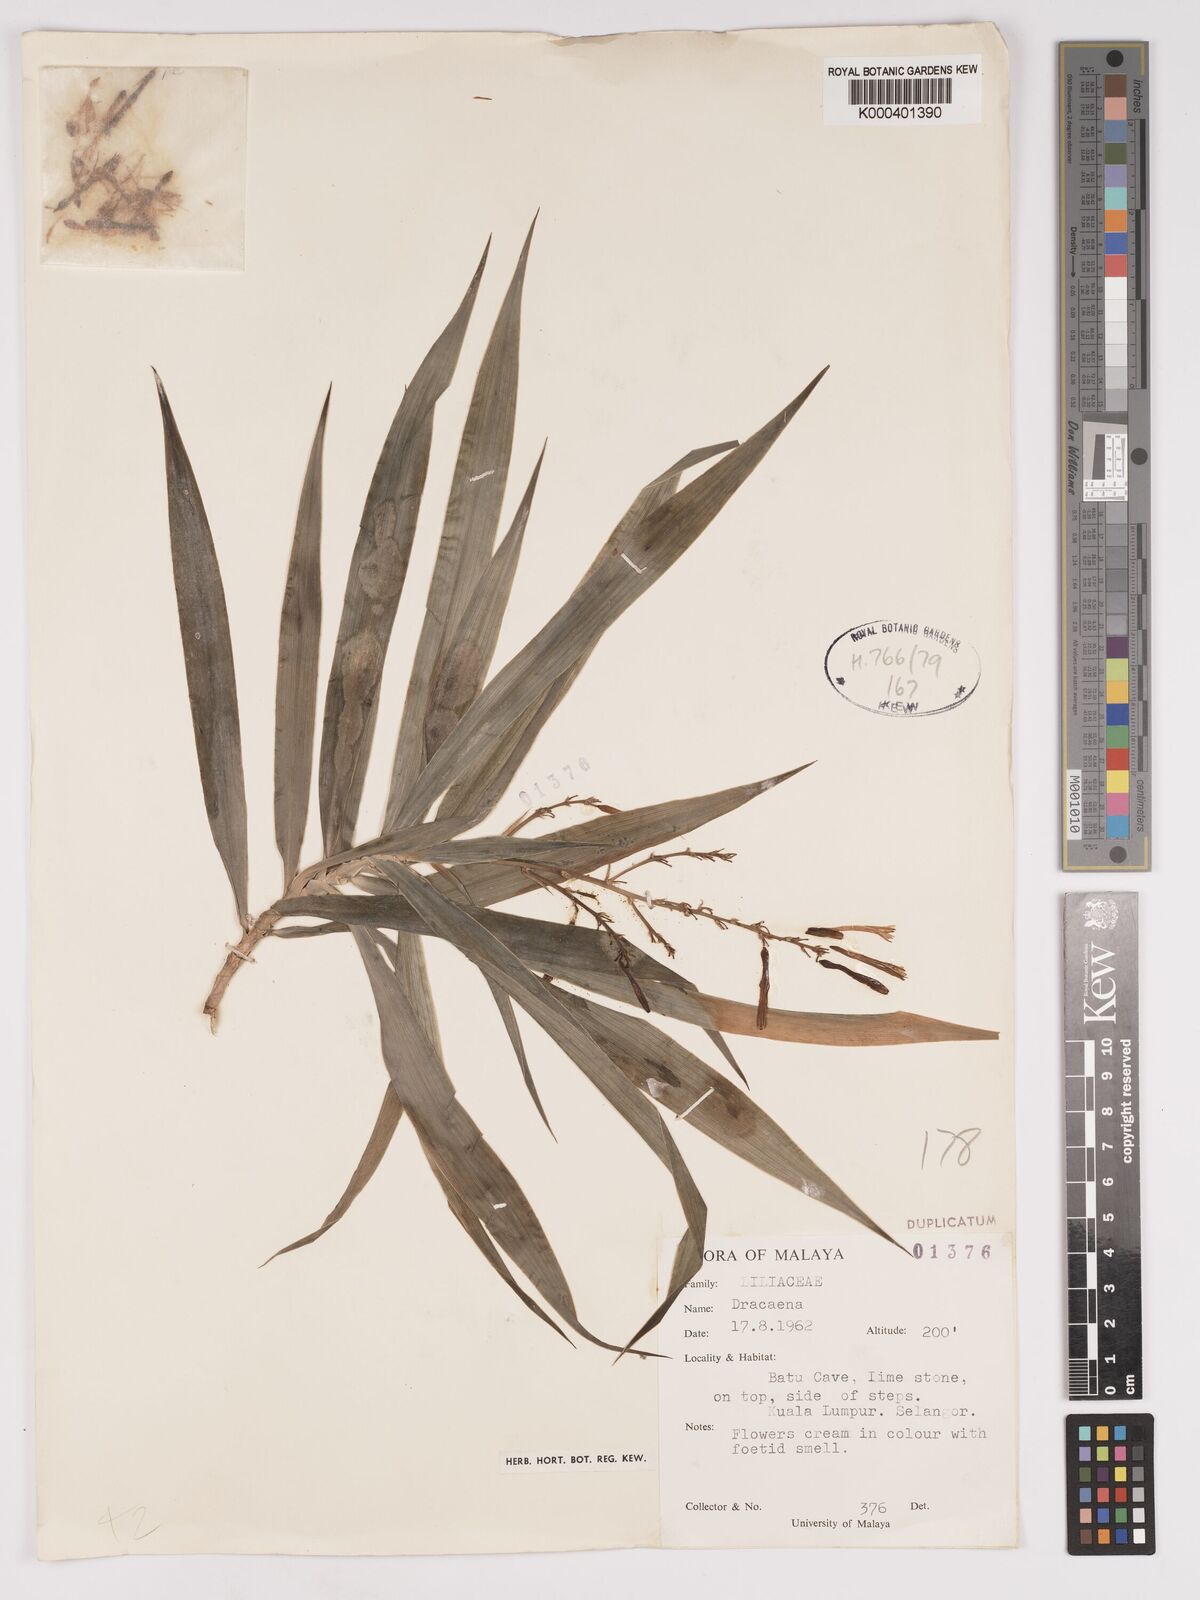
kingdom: Plantae
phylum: Tracheophyta
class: Liliopsida
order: Asparagales
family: Asparagaceae
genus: Dracaena
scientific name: Dracaena
